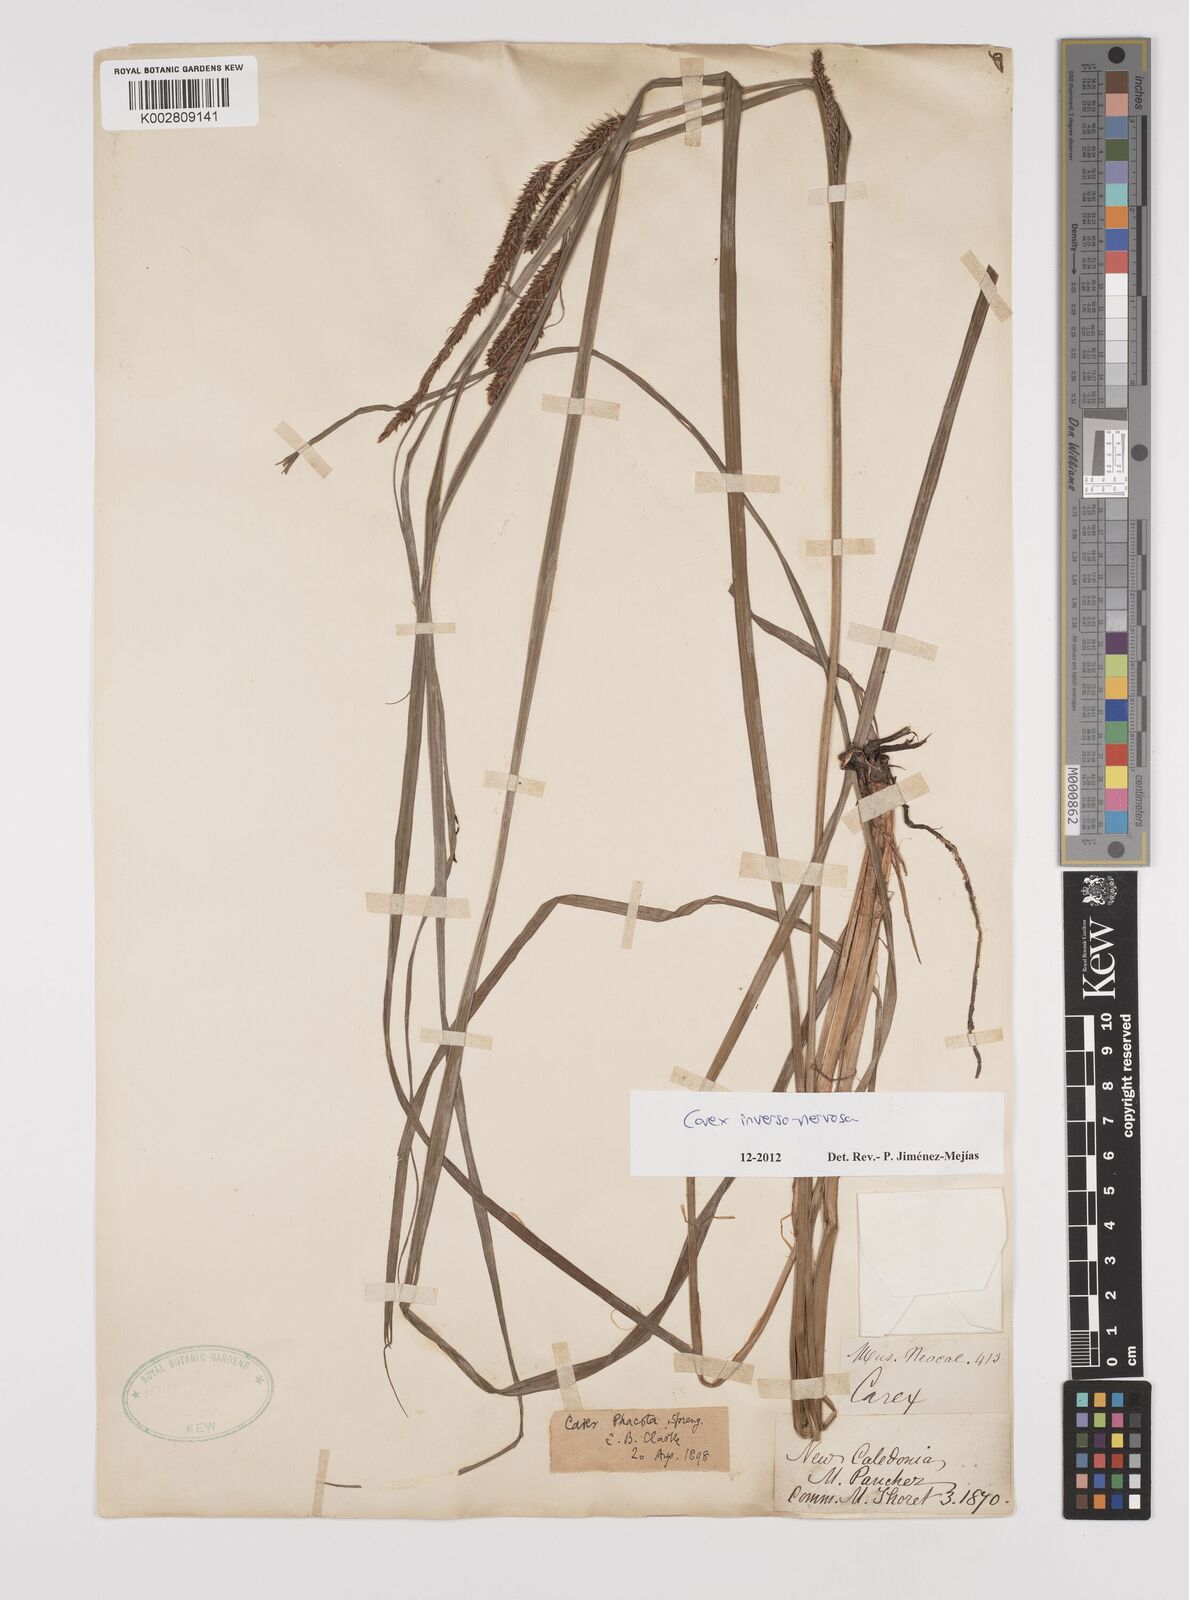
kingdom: Plantae
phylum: Tracheophyta
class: Liliopsida
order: Poales
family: Cyperaceae
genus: Carex
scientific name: Carex inversonervosa
